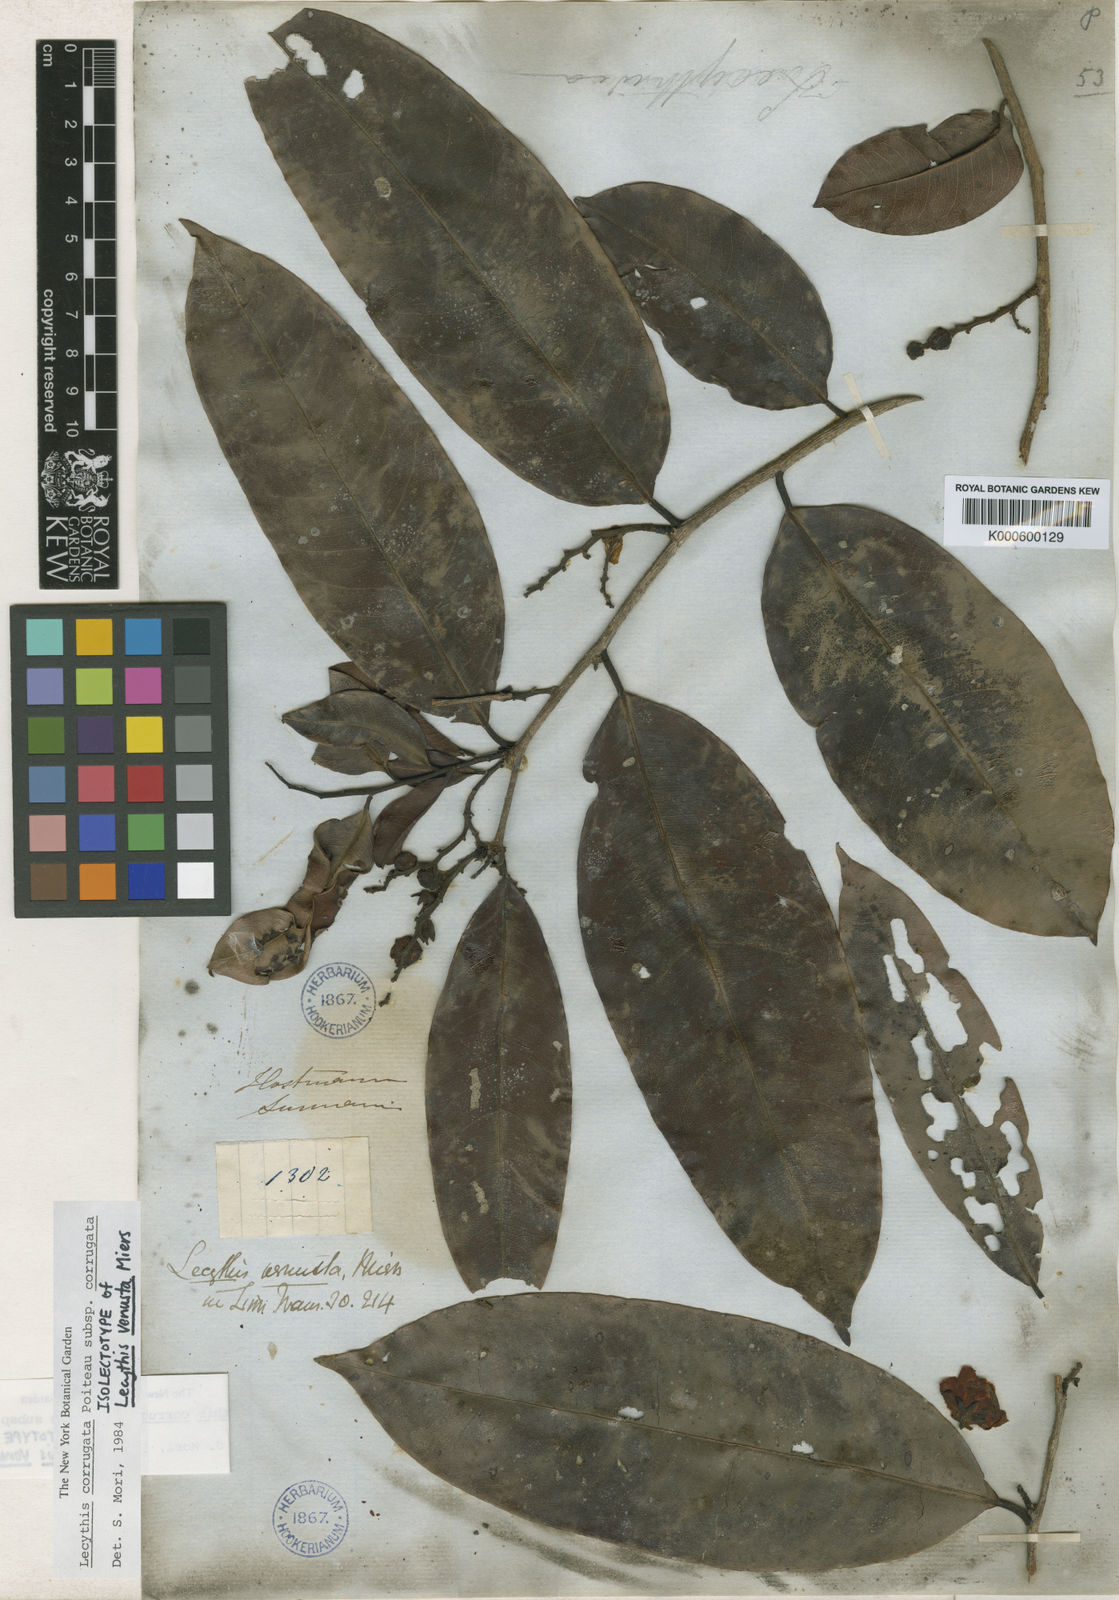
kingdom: Plantae
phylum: Tracheophyta
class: Magnoliopsida
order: Ericales
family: Lecythidaceae
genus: Lecythis
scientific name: Lecythis corrugata
